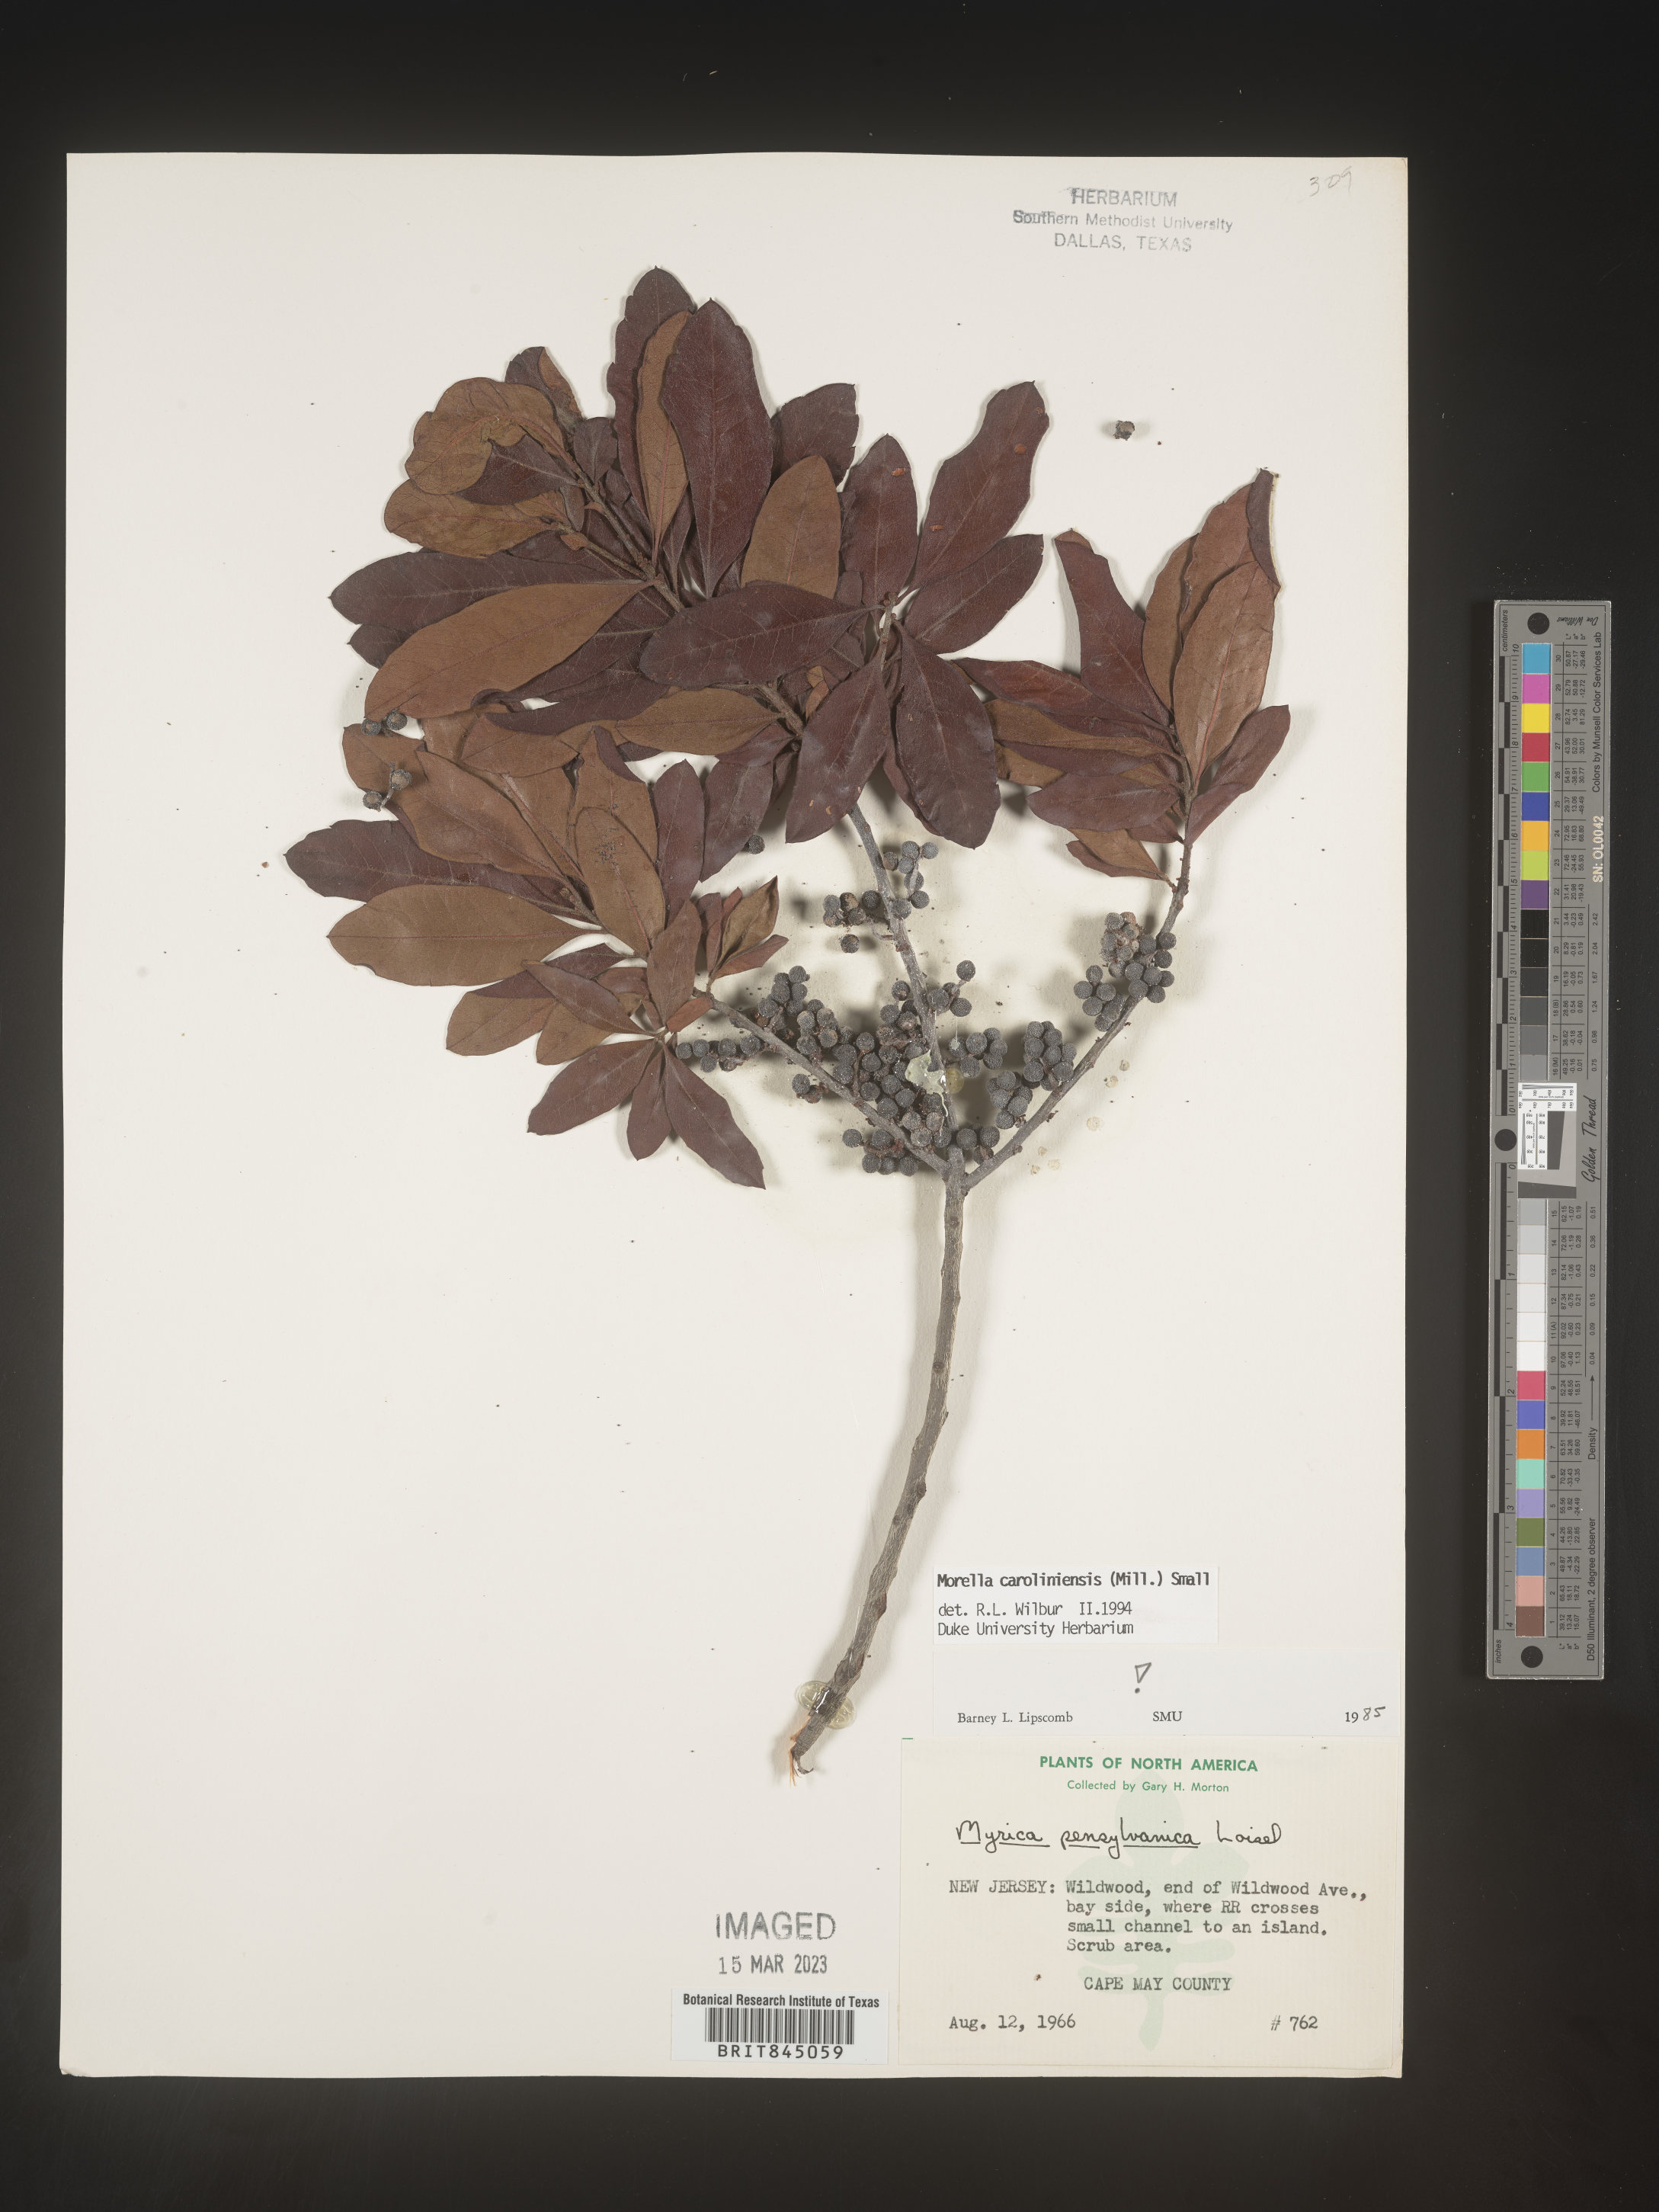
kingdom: Plantae
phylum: Tracheophyta
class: Magnoliopsida
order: Fagales
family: Myricaceae
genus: Morella
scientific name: Morella caroliniensis
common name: Evergreen bayberry
